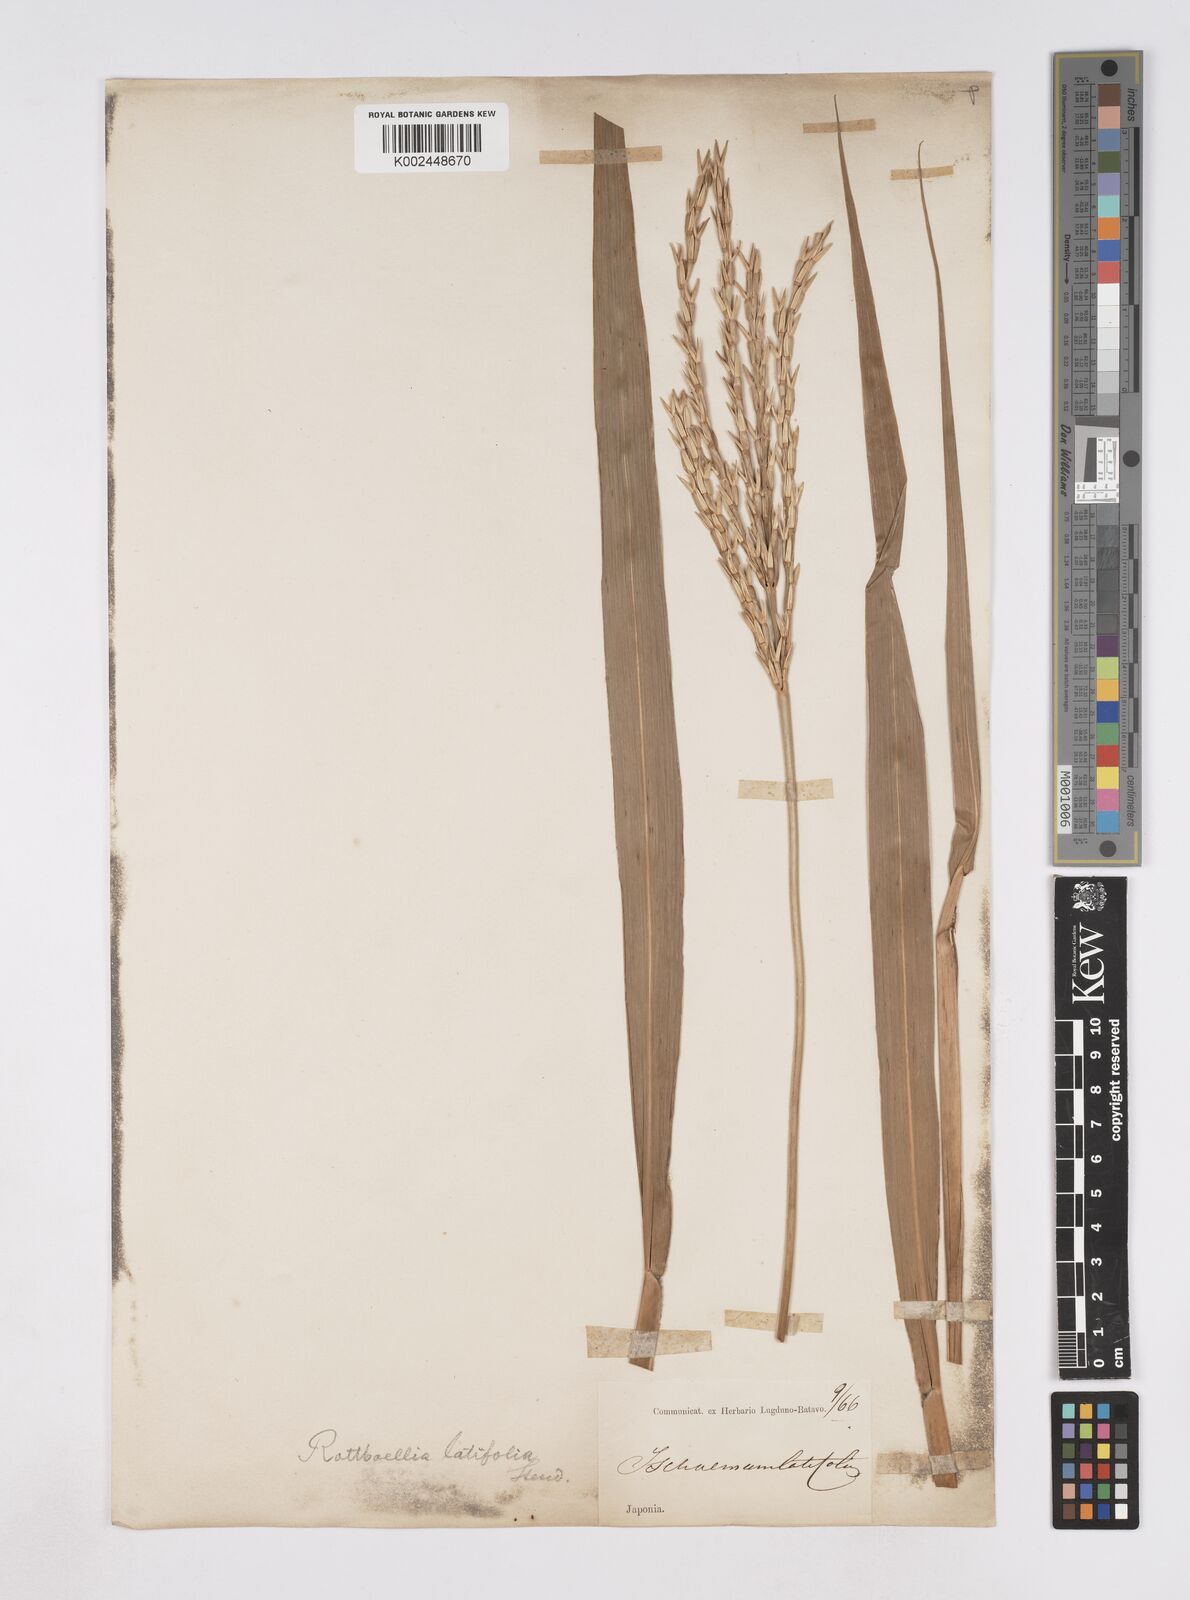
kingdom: Plantae
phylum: Tracheophyta
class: Liliopsida
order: Poales
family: Poaceae
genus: Phacelurus
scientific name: Phacelurus latifolius
